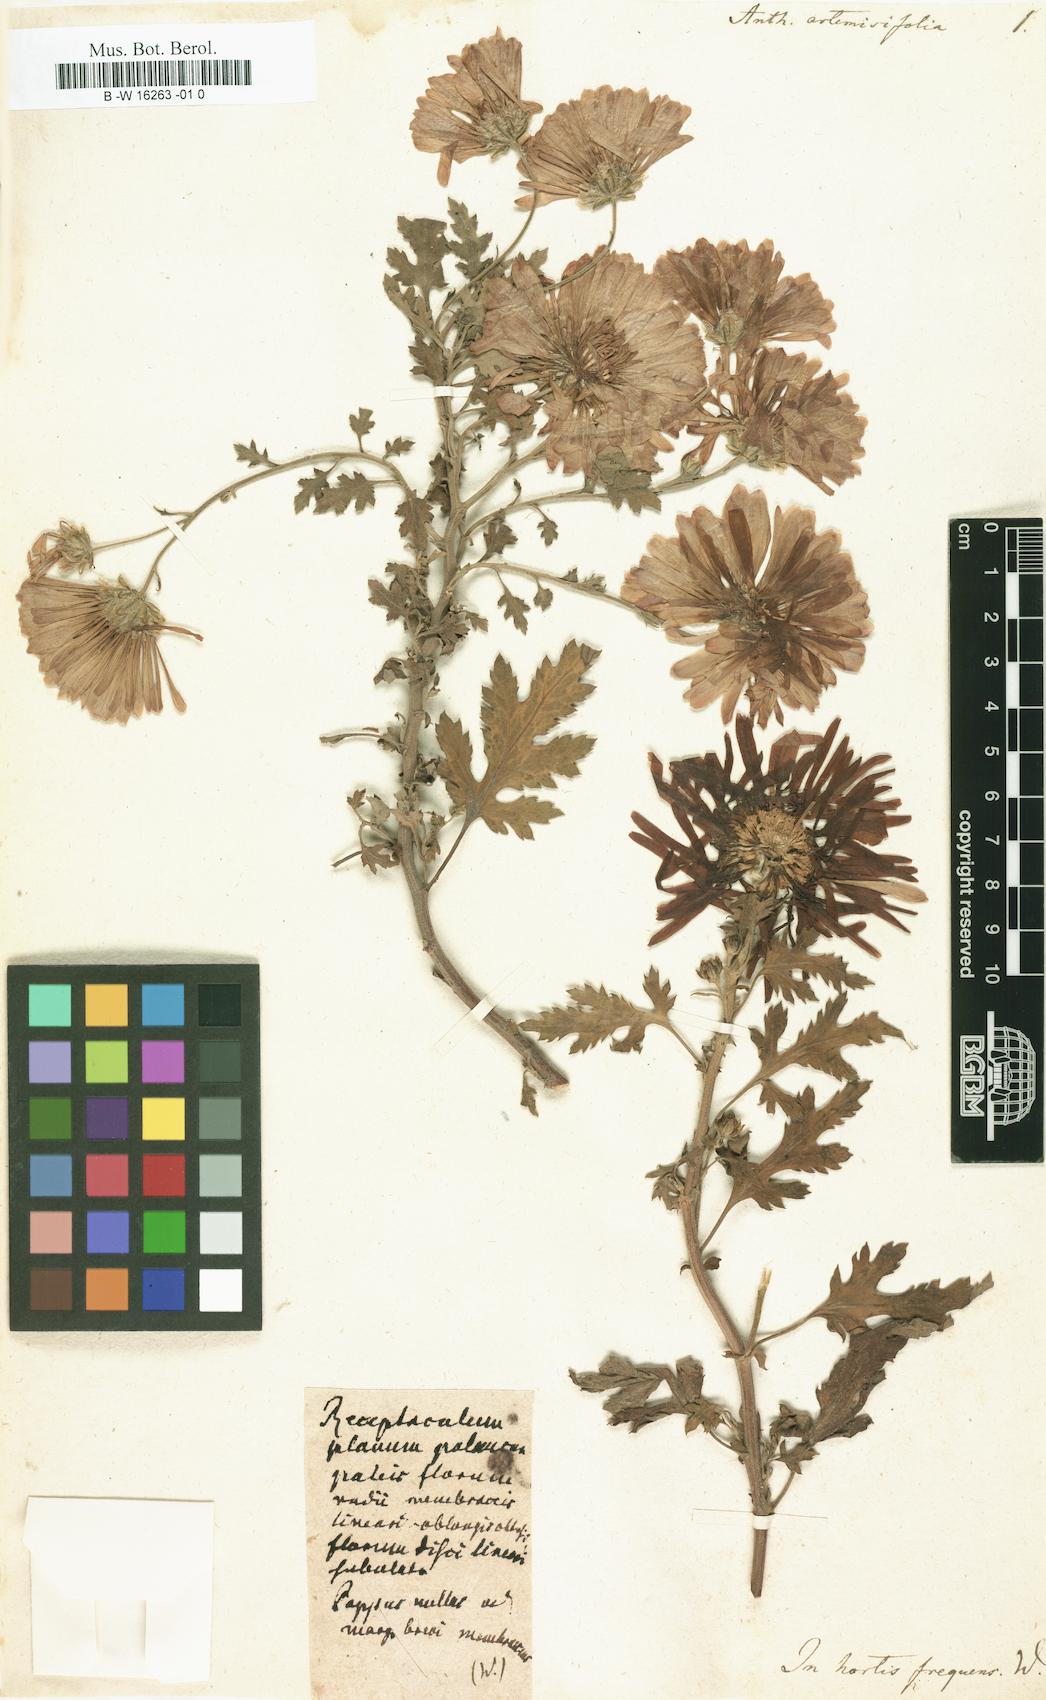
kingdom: Plantae
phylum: Tracheophyta
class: Magnoliopsida
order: Asterales
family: Asteraceae
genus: Chrysanthemum
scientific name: Chrysanthemum morifolium
